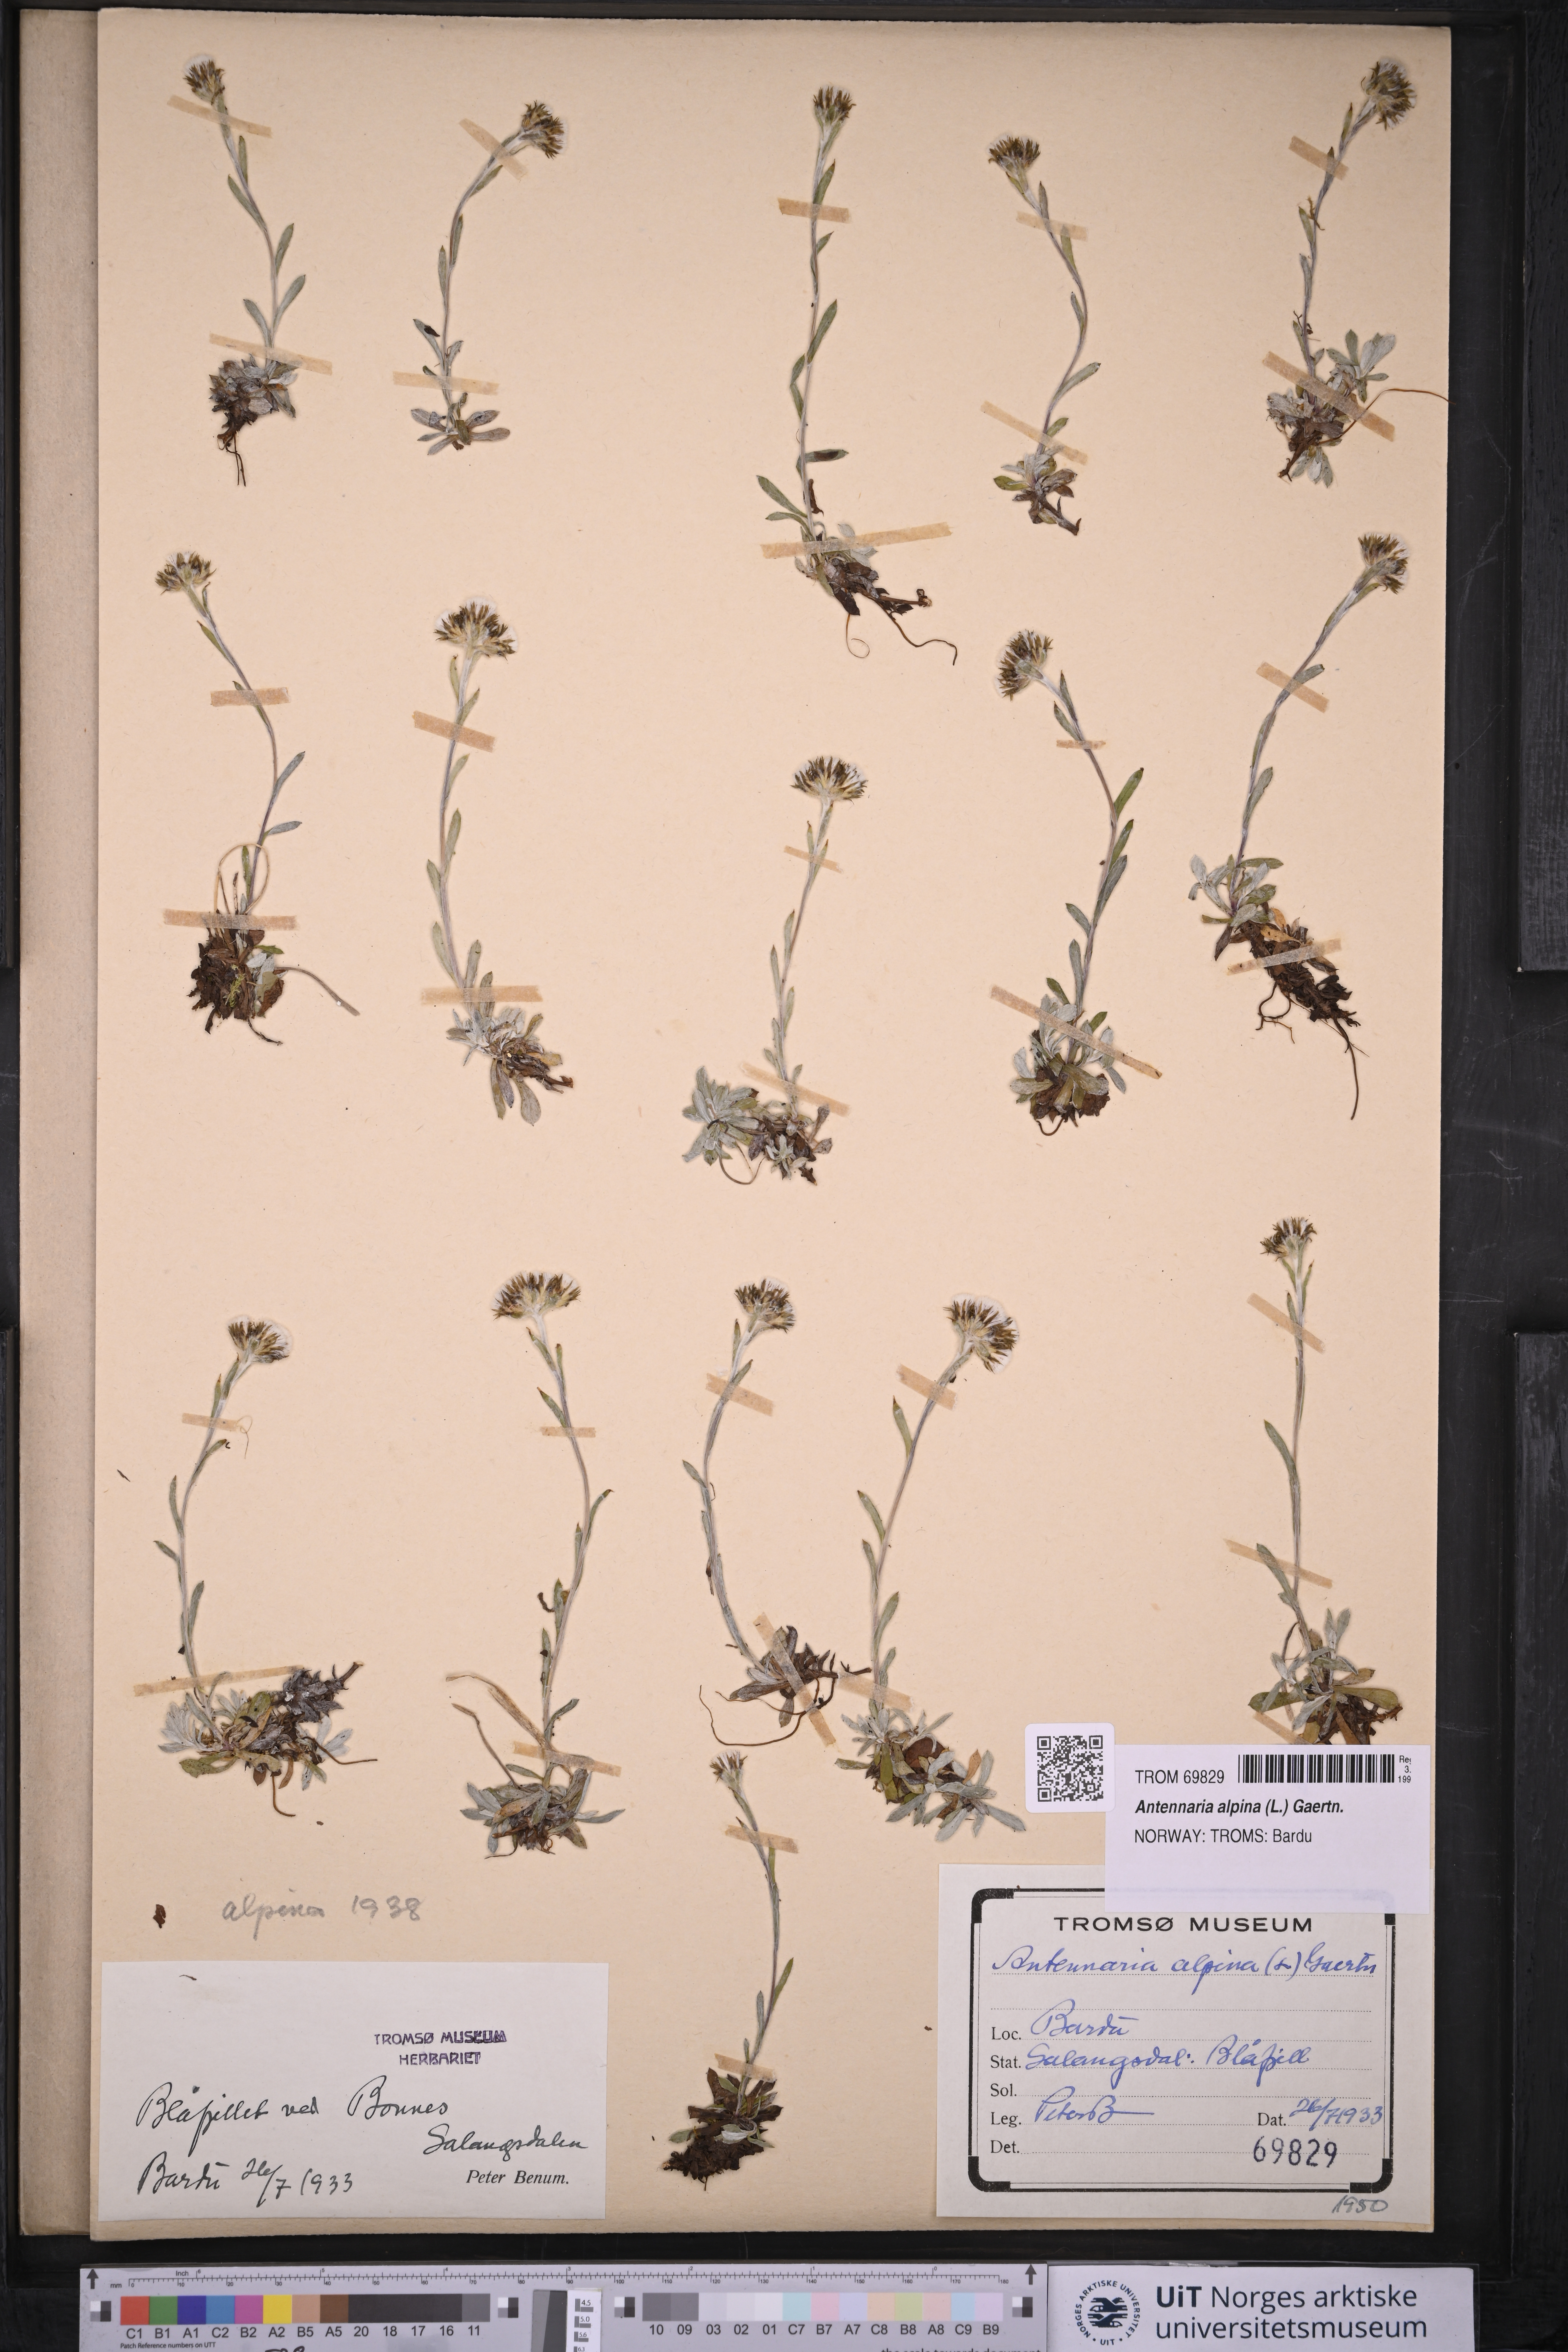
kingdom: Plantae
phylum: Tracheophyta
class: Magnoliopsida
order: Asterales
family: Asteraceae
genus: Antennaria
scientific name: Antennaria alpina
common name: Alpine pussytoes
